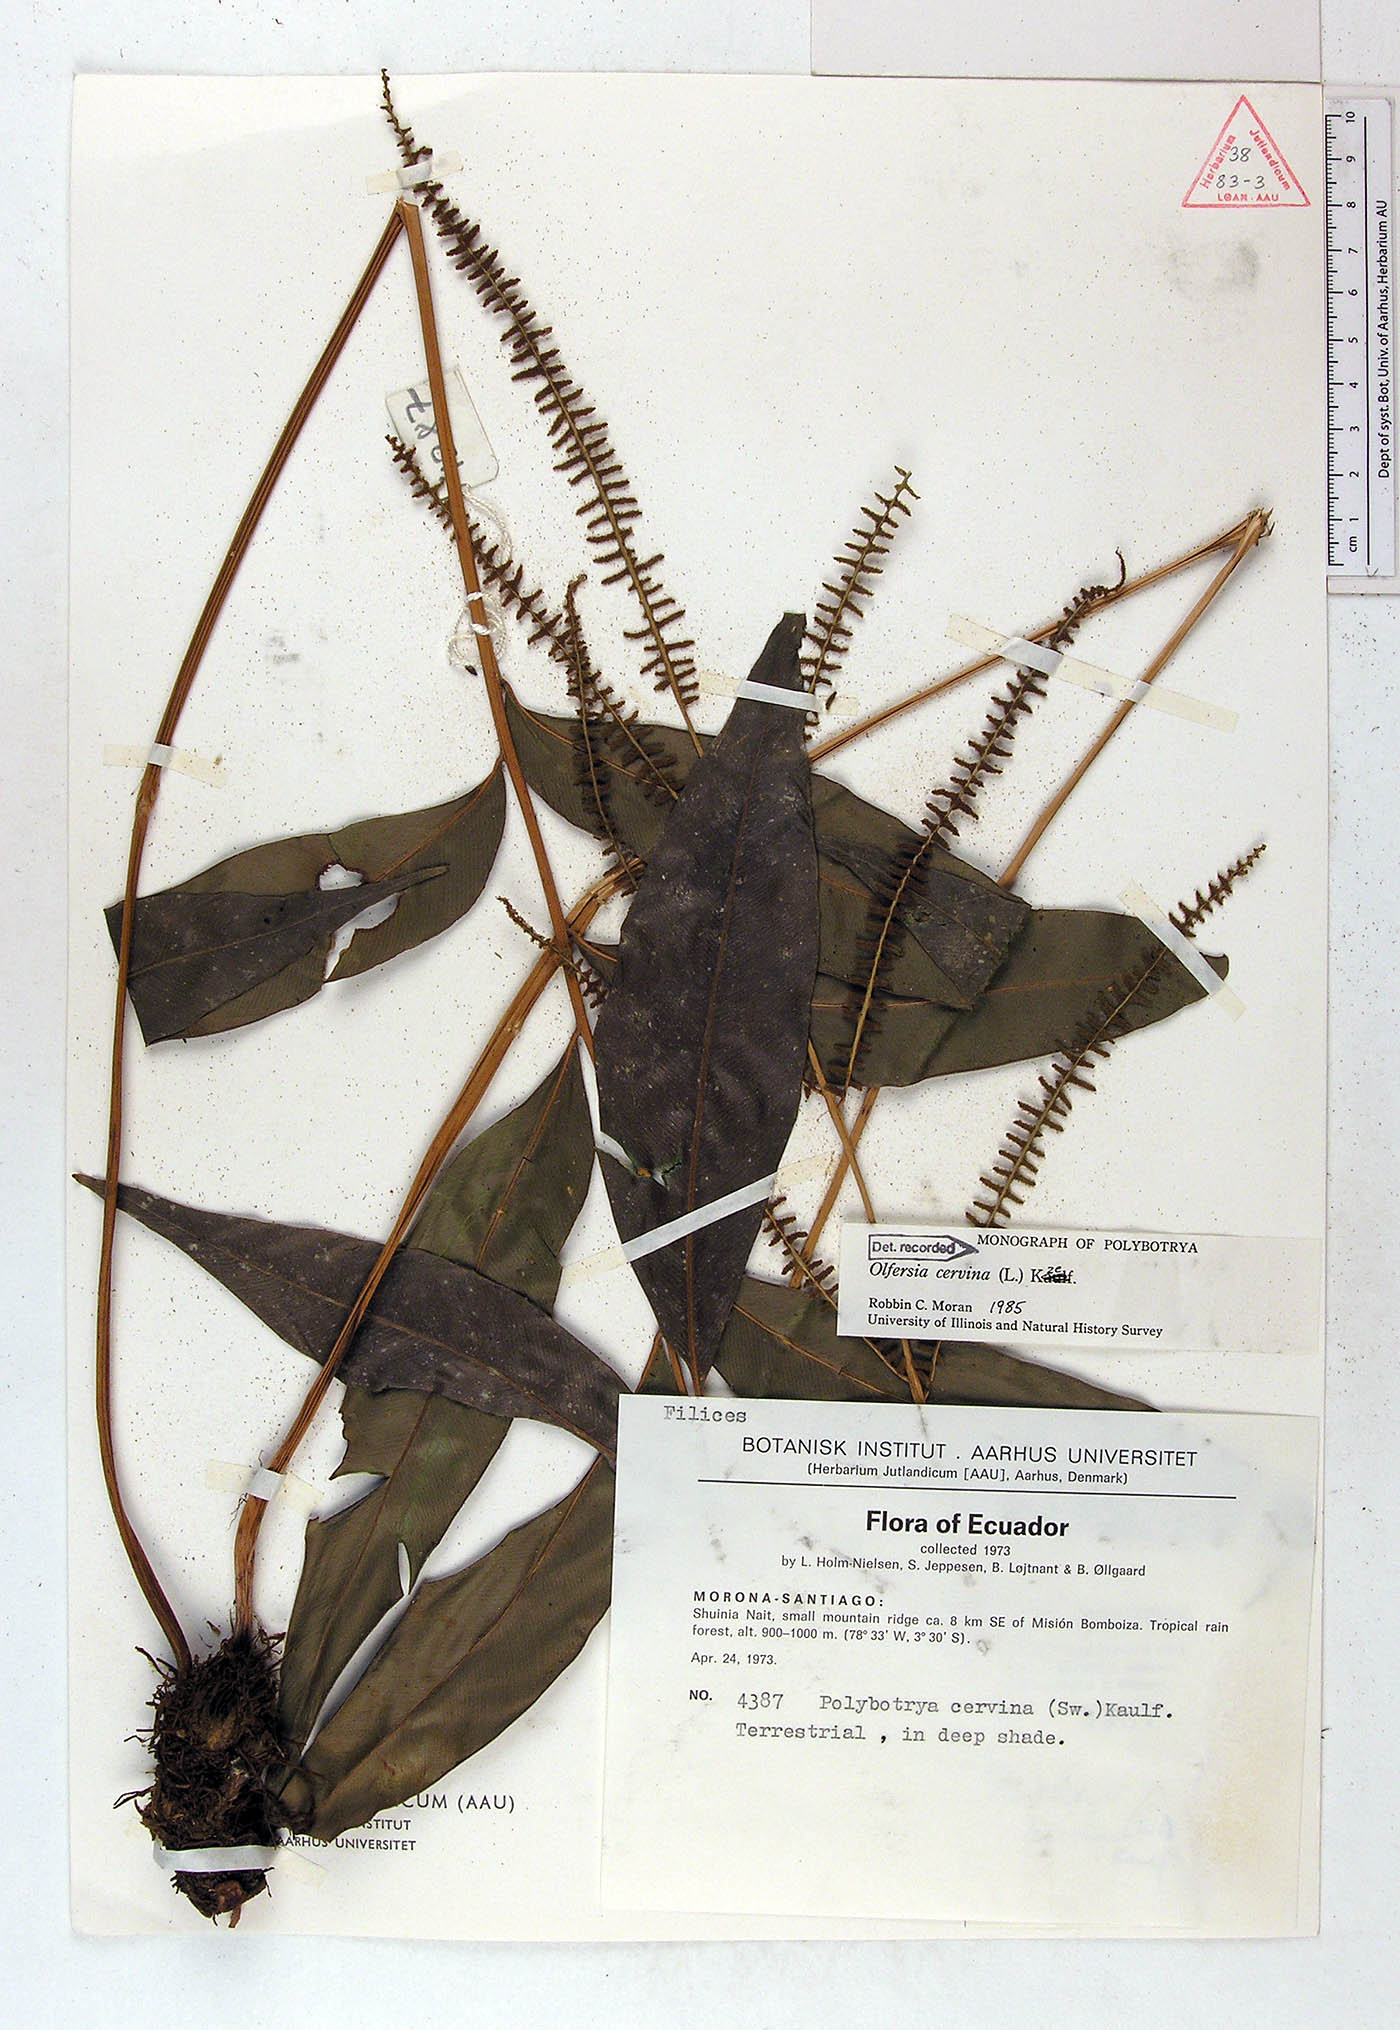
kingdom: Plantae
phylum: Tracheophyta
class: Polypodiopsida
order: Polypodiales
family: Dryopteridaceae
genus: Olfersia
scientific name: Olfersia cervina
